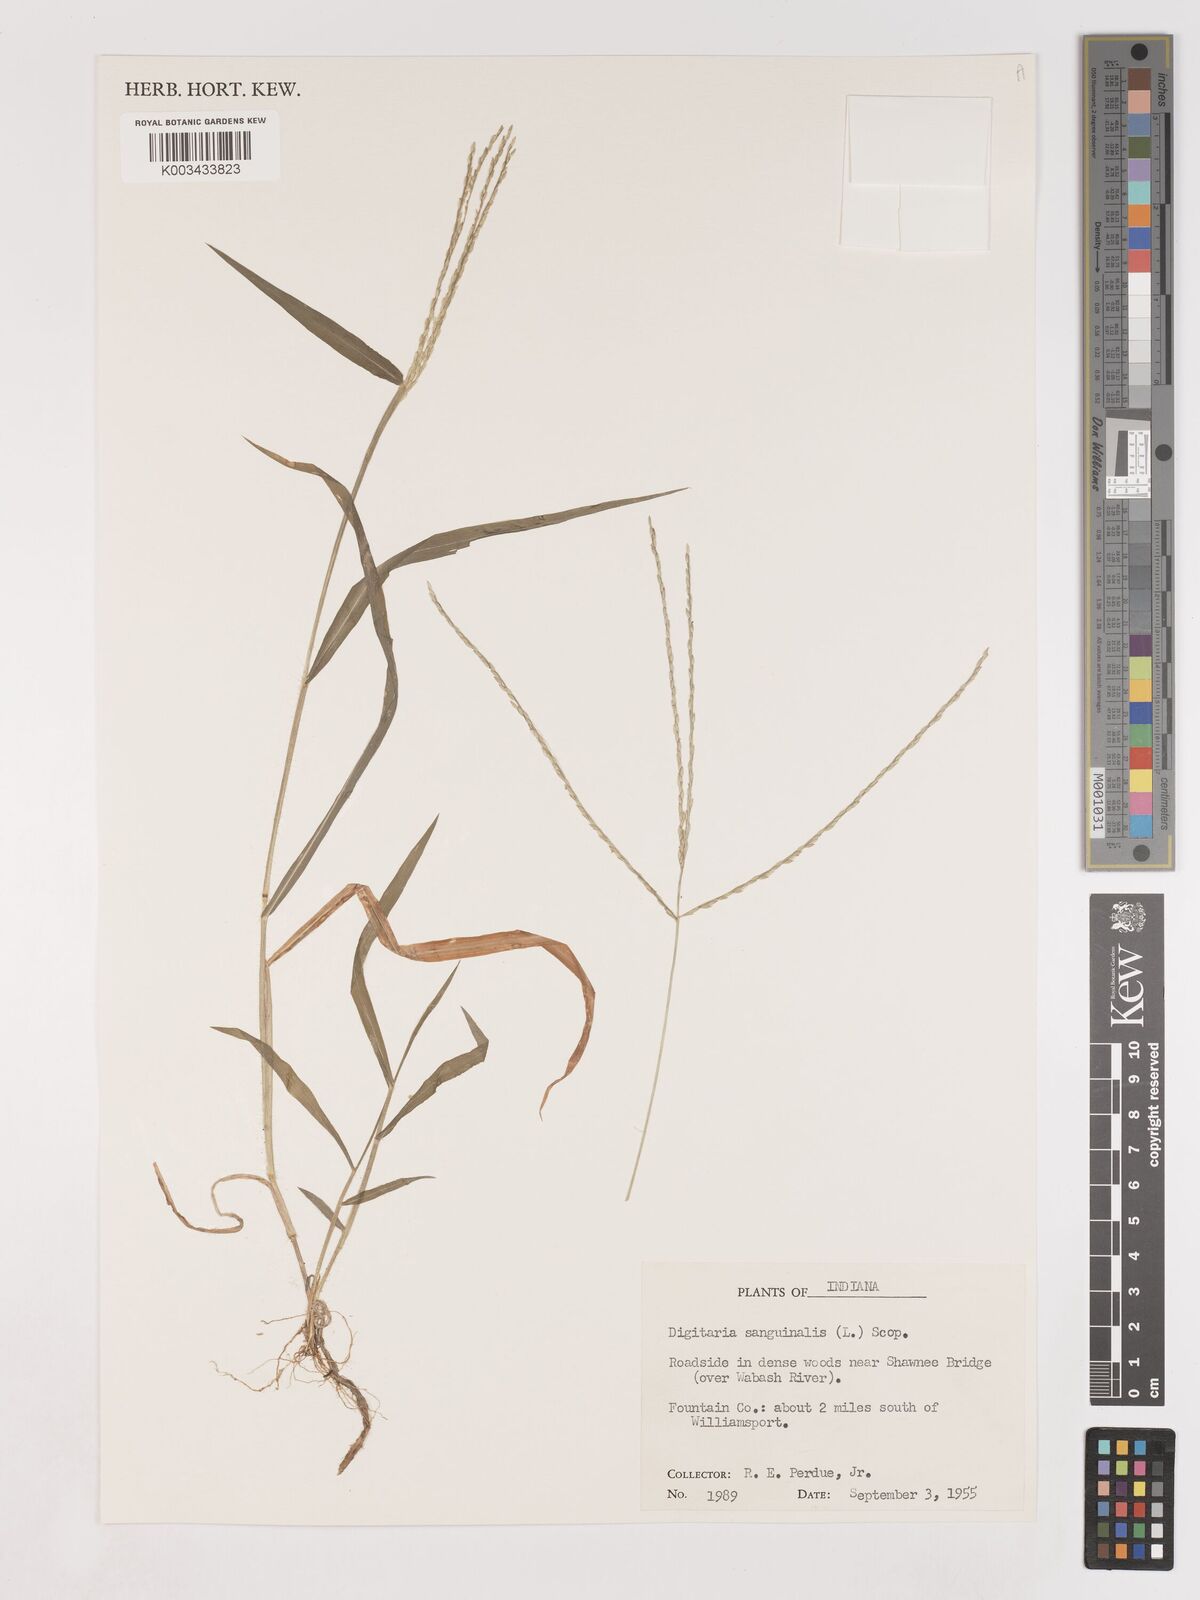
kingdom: Plantae
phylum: Tracheophyta
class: Liliopsida
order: Poales
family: Poaceae
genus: Digitaria
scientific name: Digitaria ciliaris
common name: Tropical finger-grass
